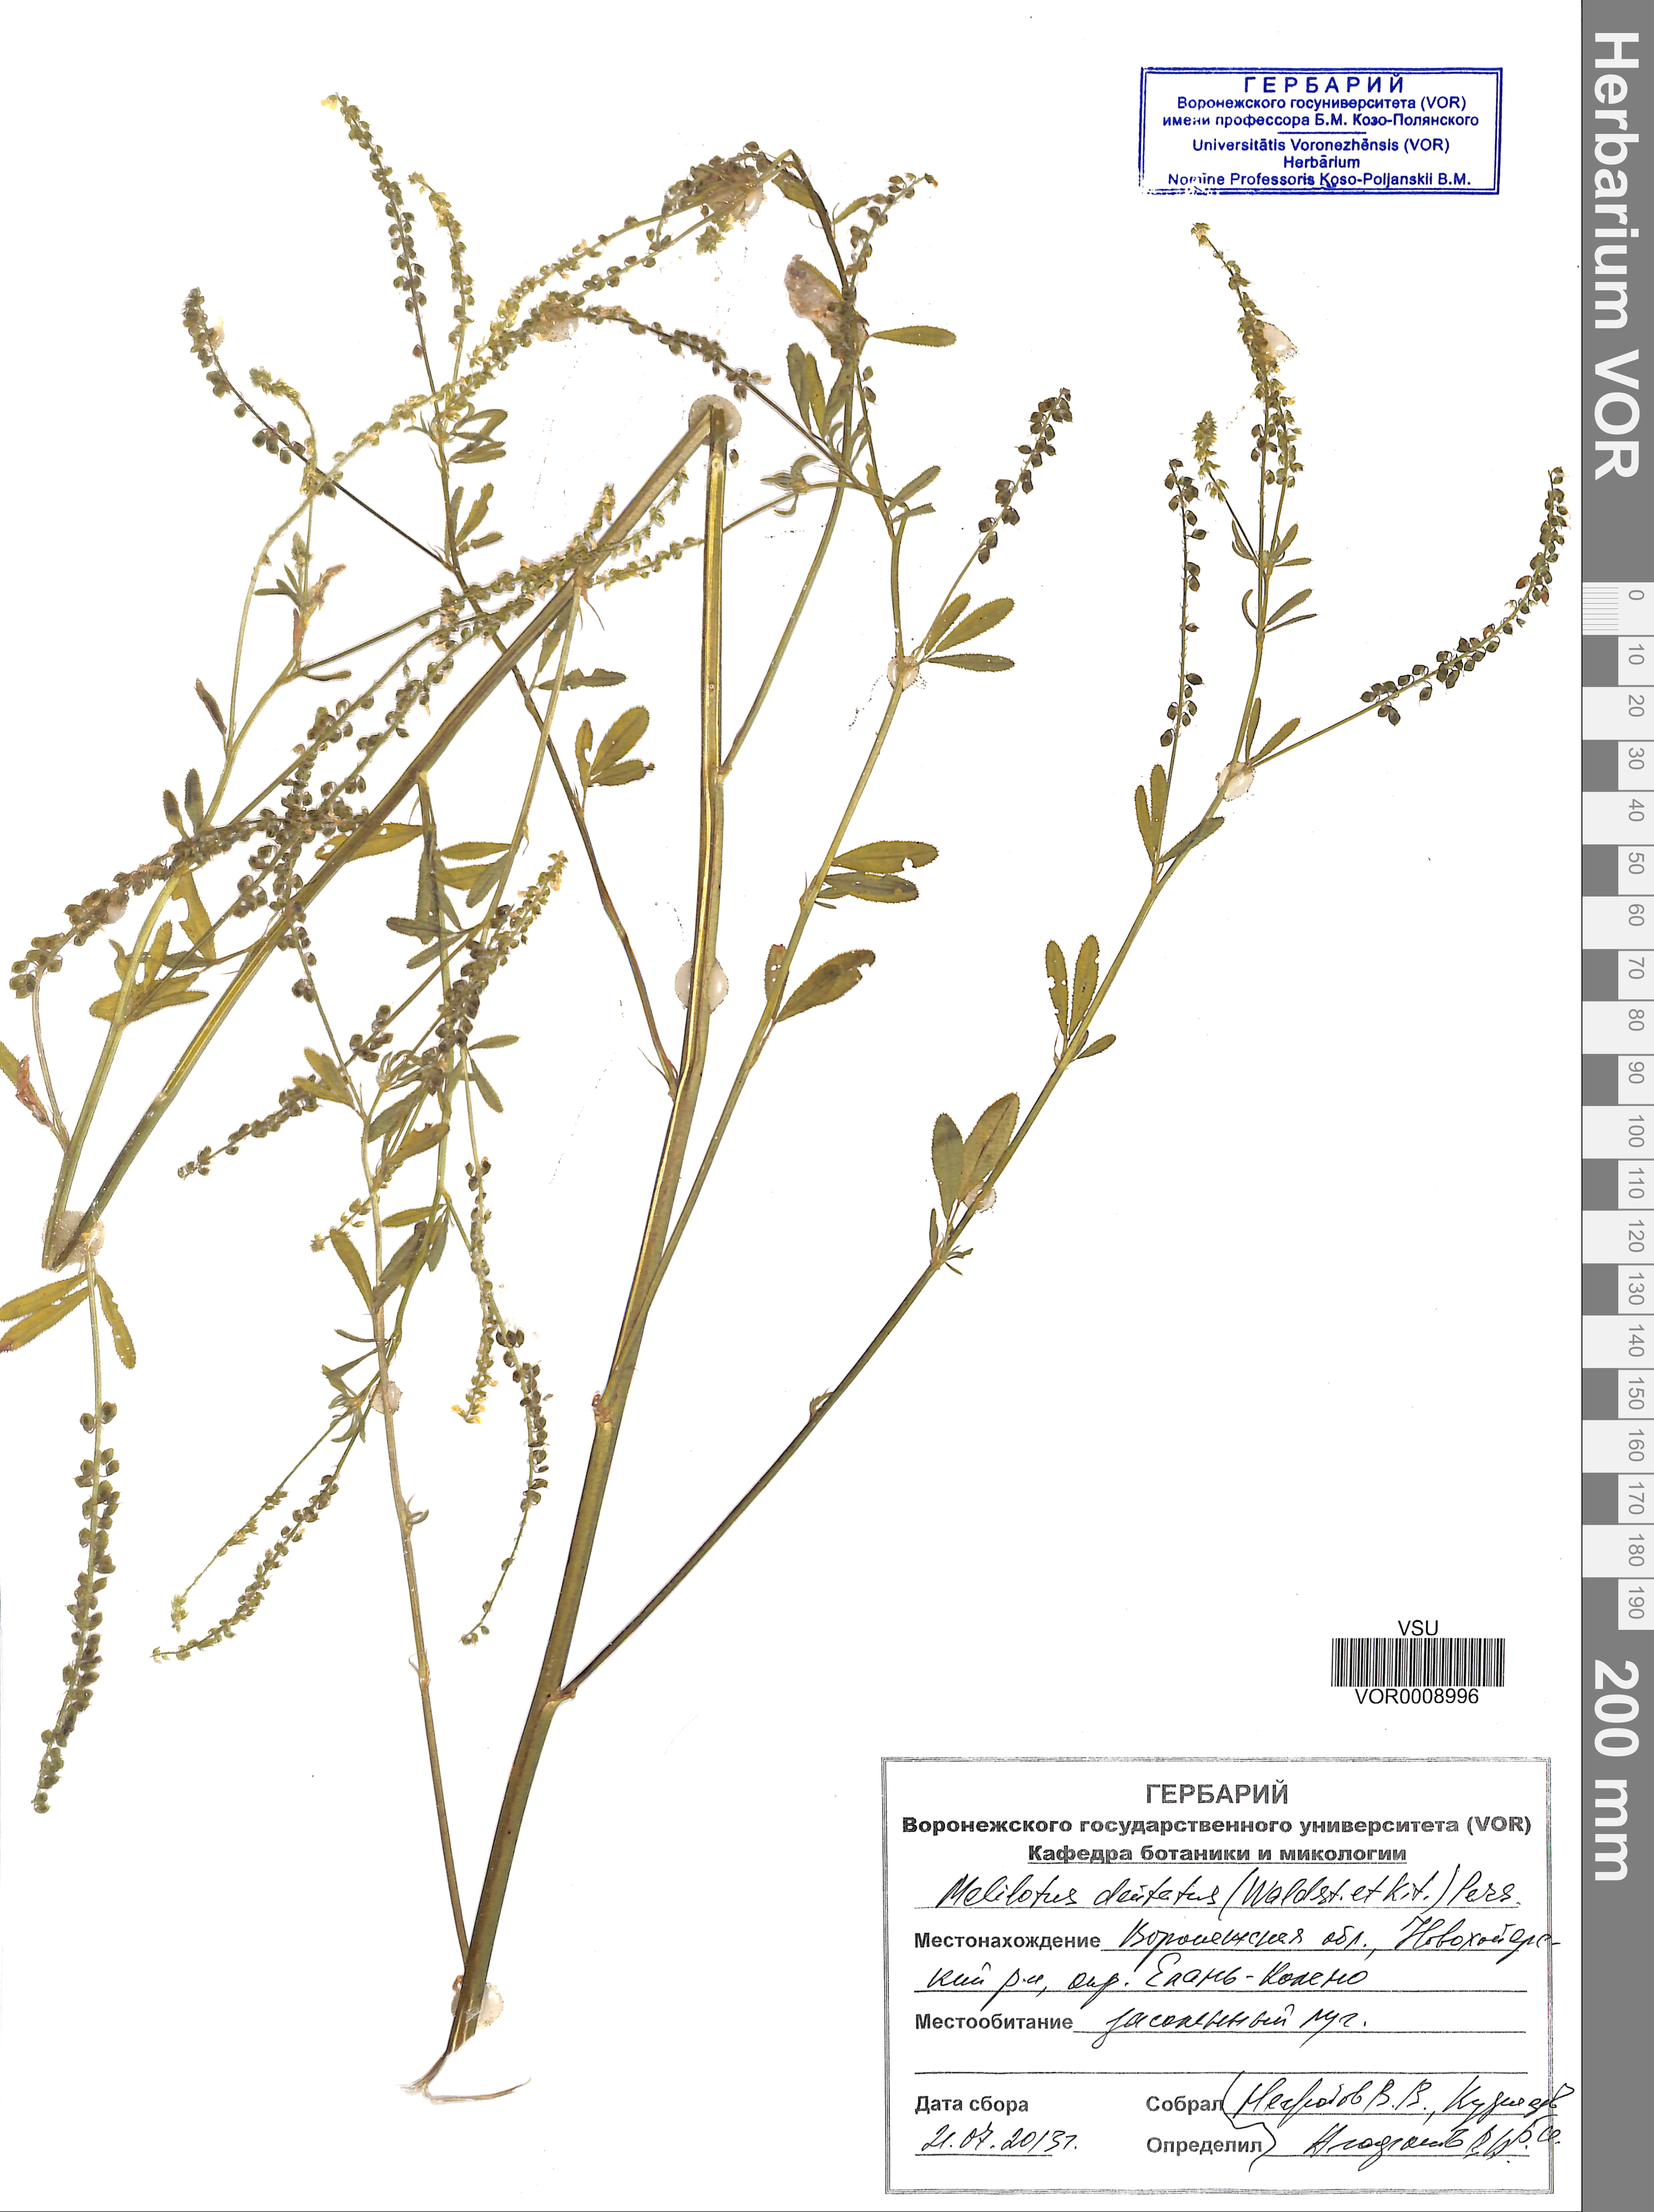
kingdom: Plantae
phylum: Tracheophyta
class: Magnoliopsida
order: Fabales
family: Fabaceae
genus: Melilotus
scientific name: Melilotus dentatus
